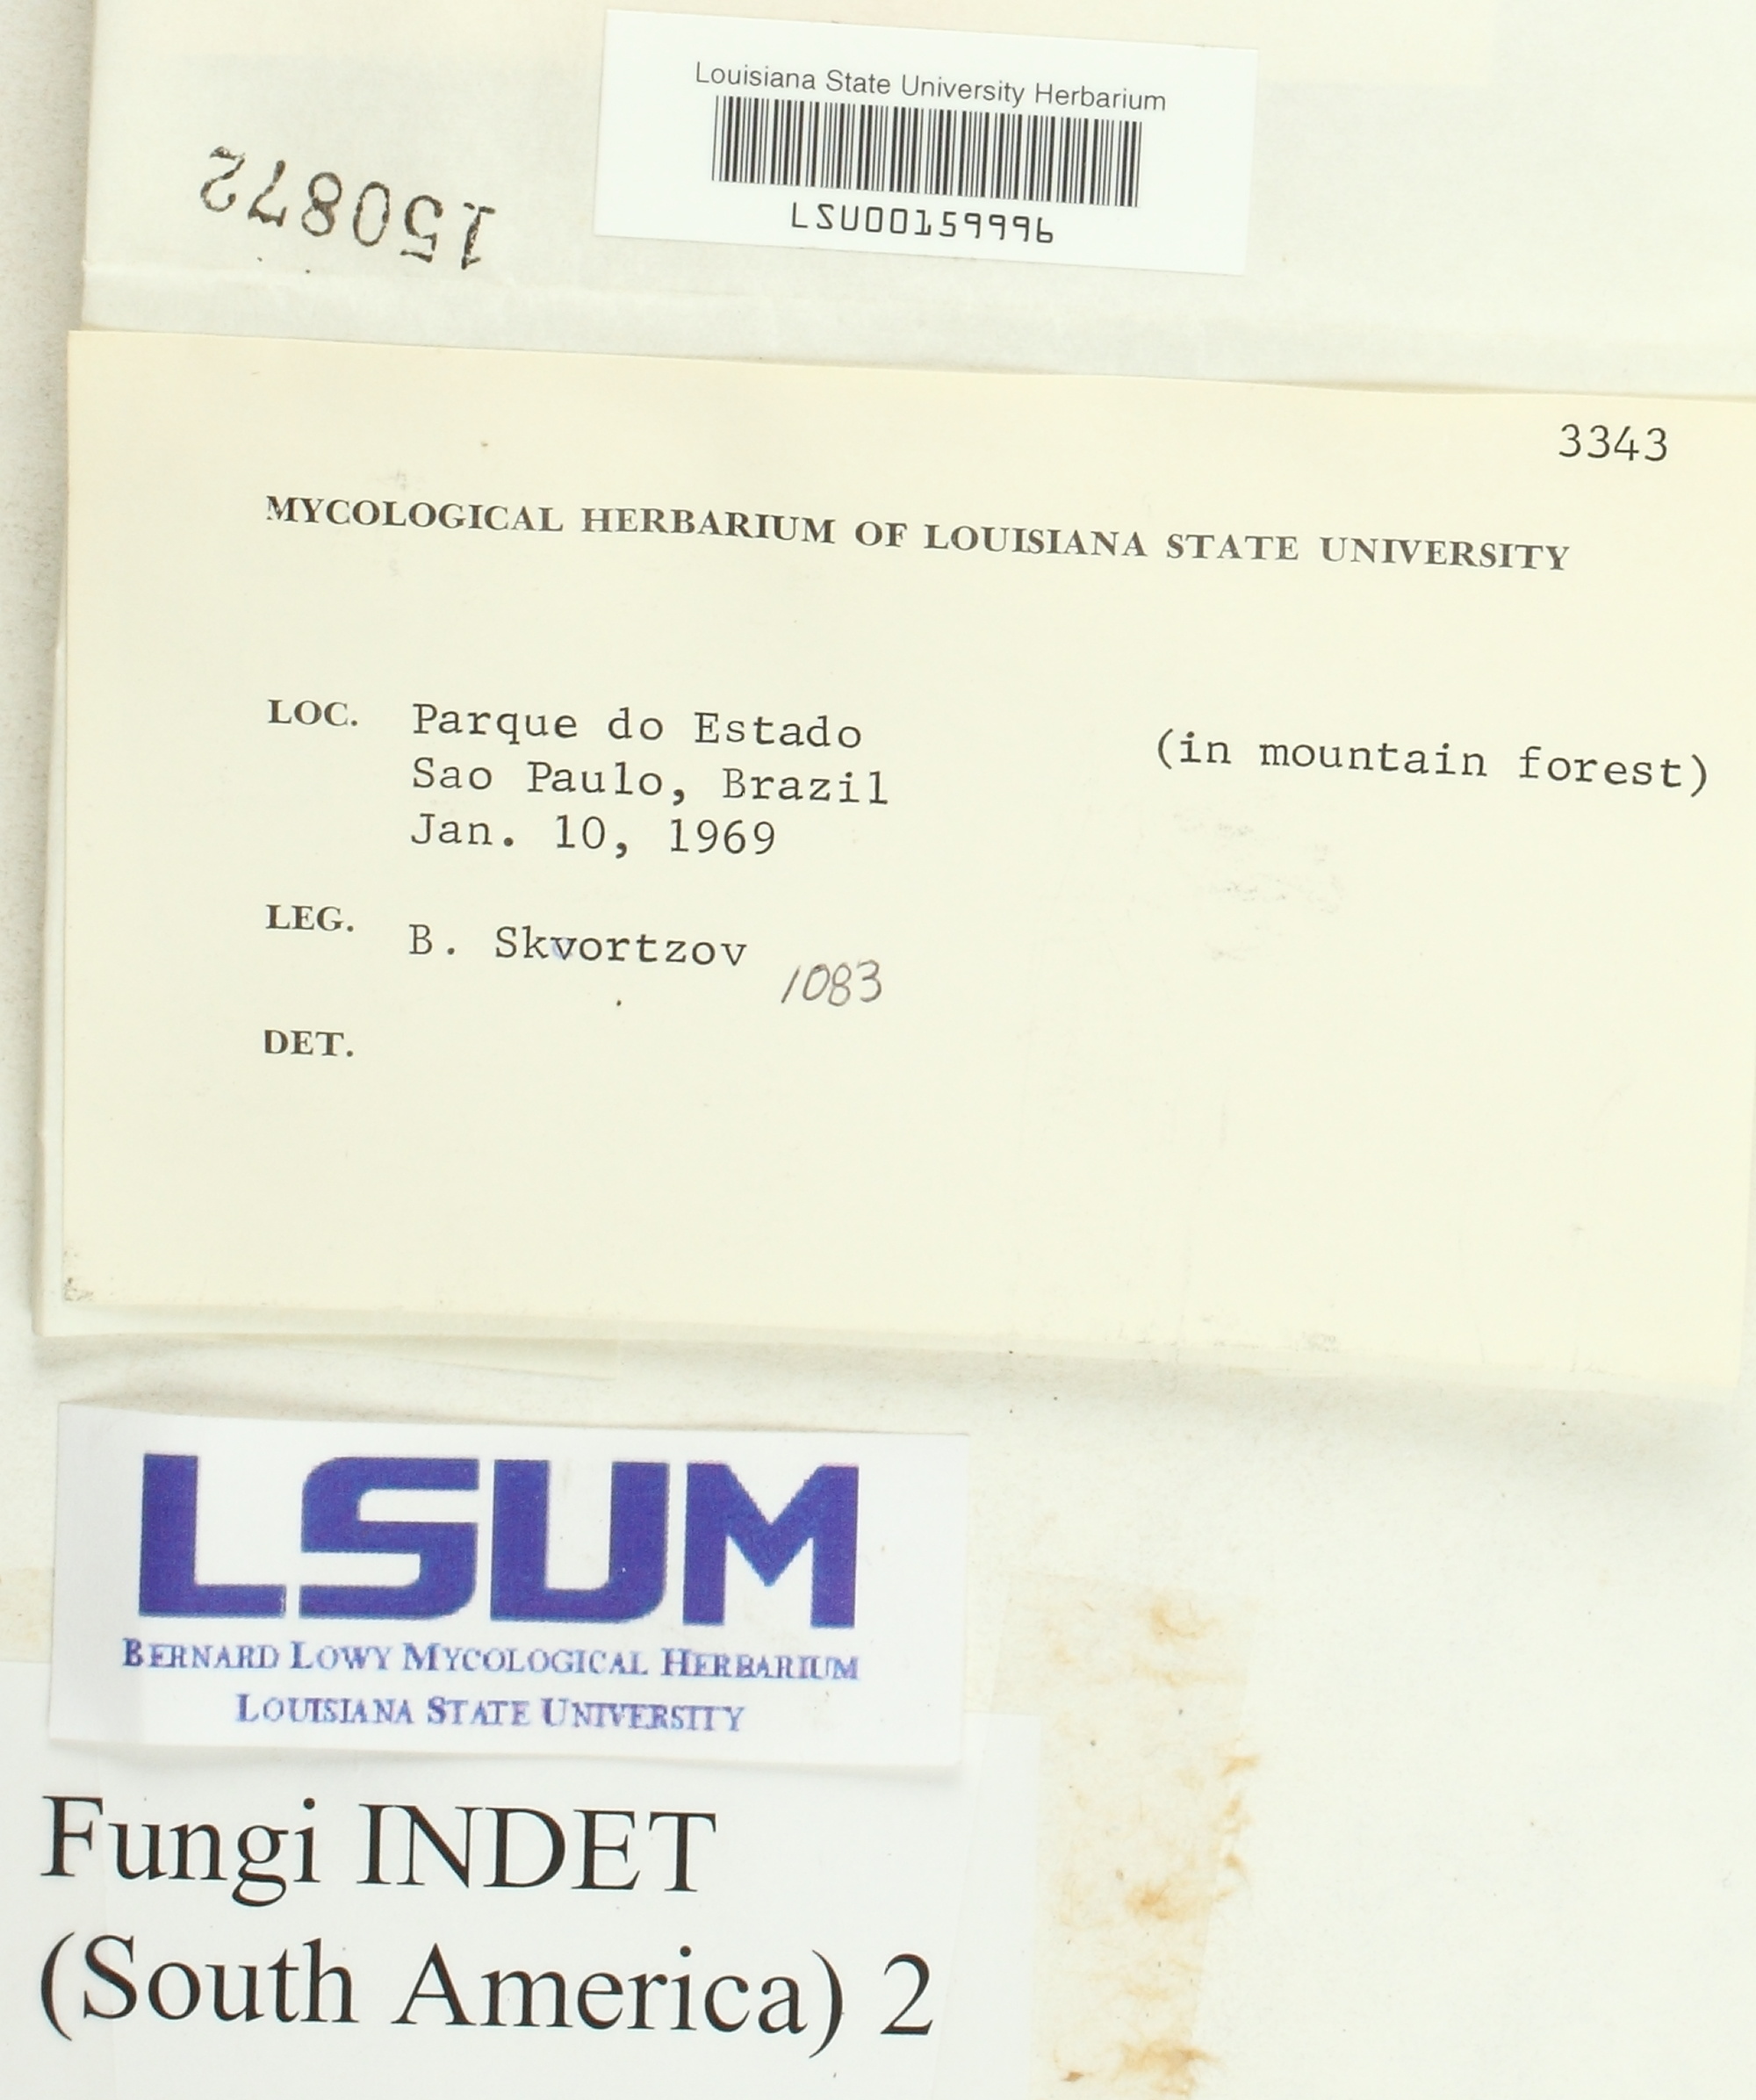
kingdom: Fungi
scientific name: Fungi
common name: Fungi
